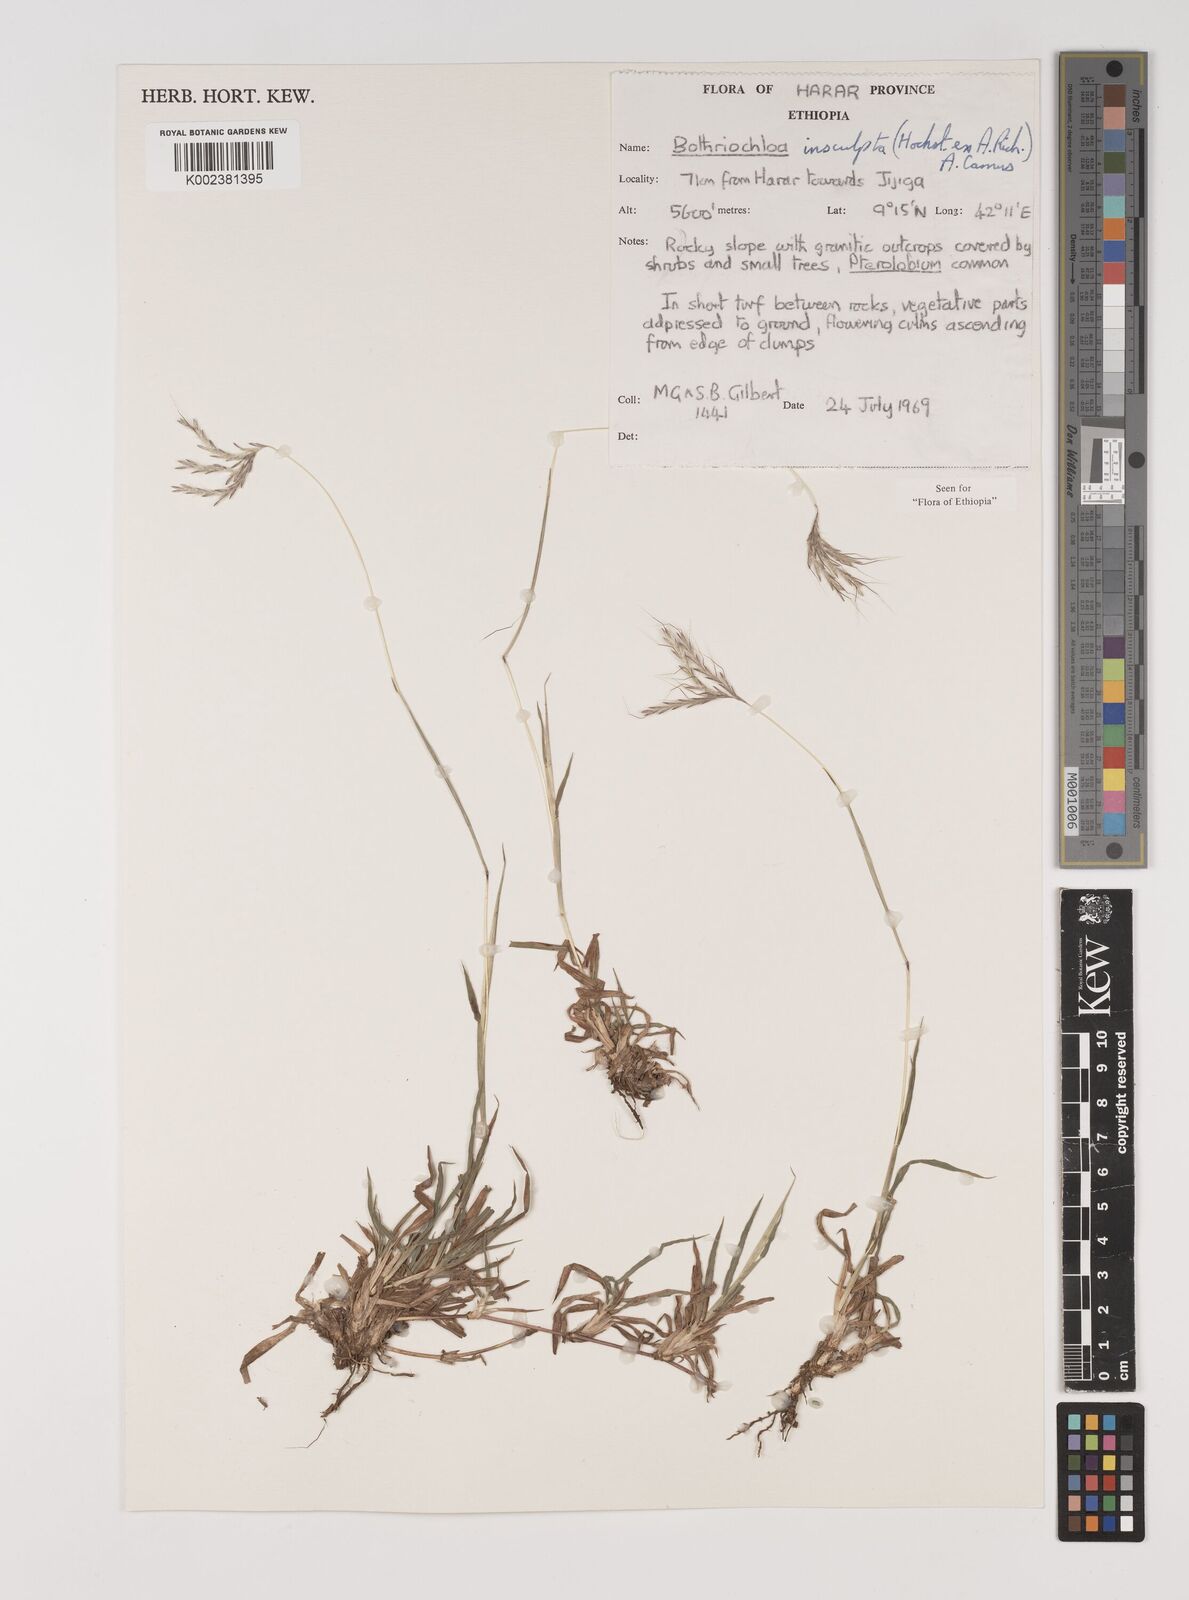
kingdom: Plantae
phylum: Tracheophyta
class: Liliopsida
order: Poales
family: Poaceae
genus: Bothriochloa
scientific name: Bothriochloa insculpta
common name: Creeping-bluegrass
